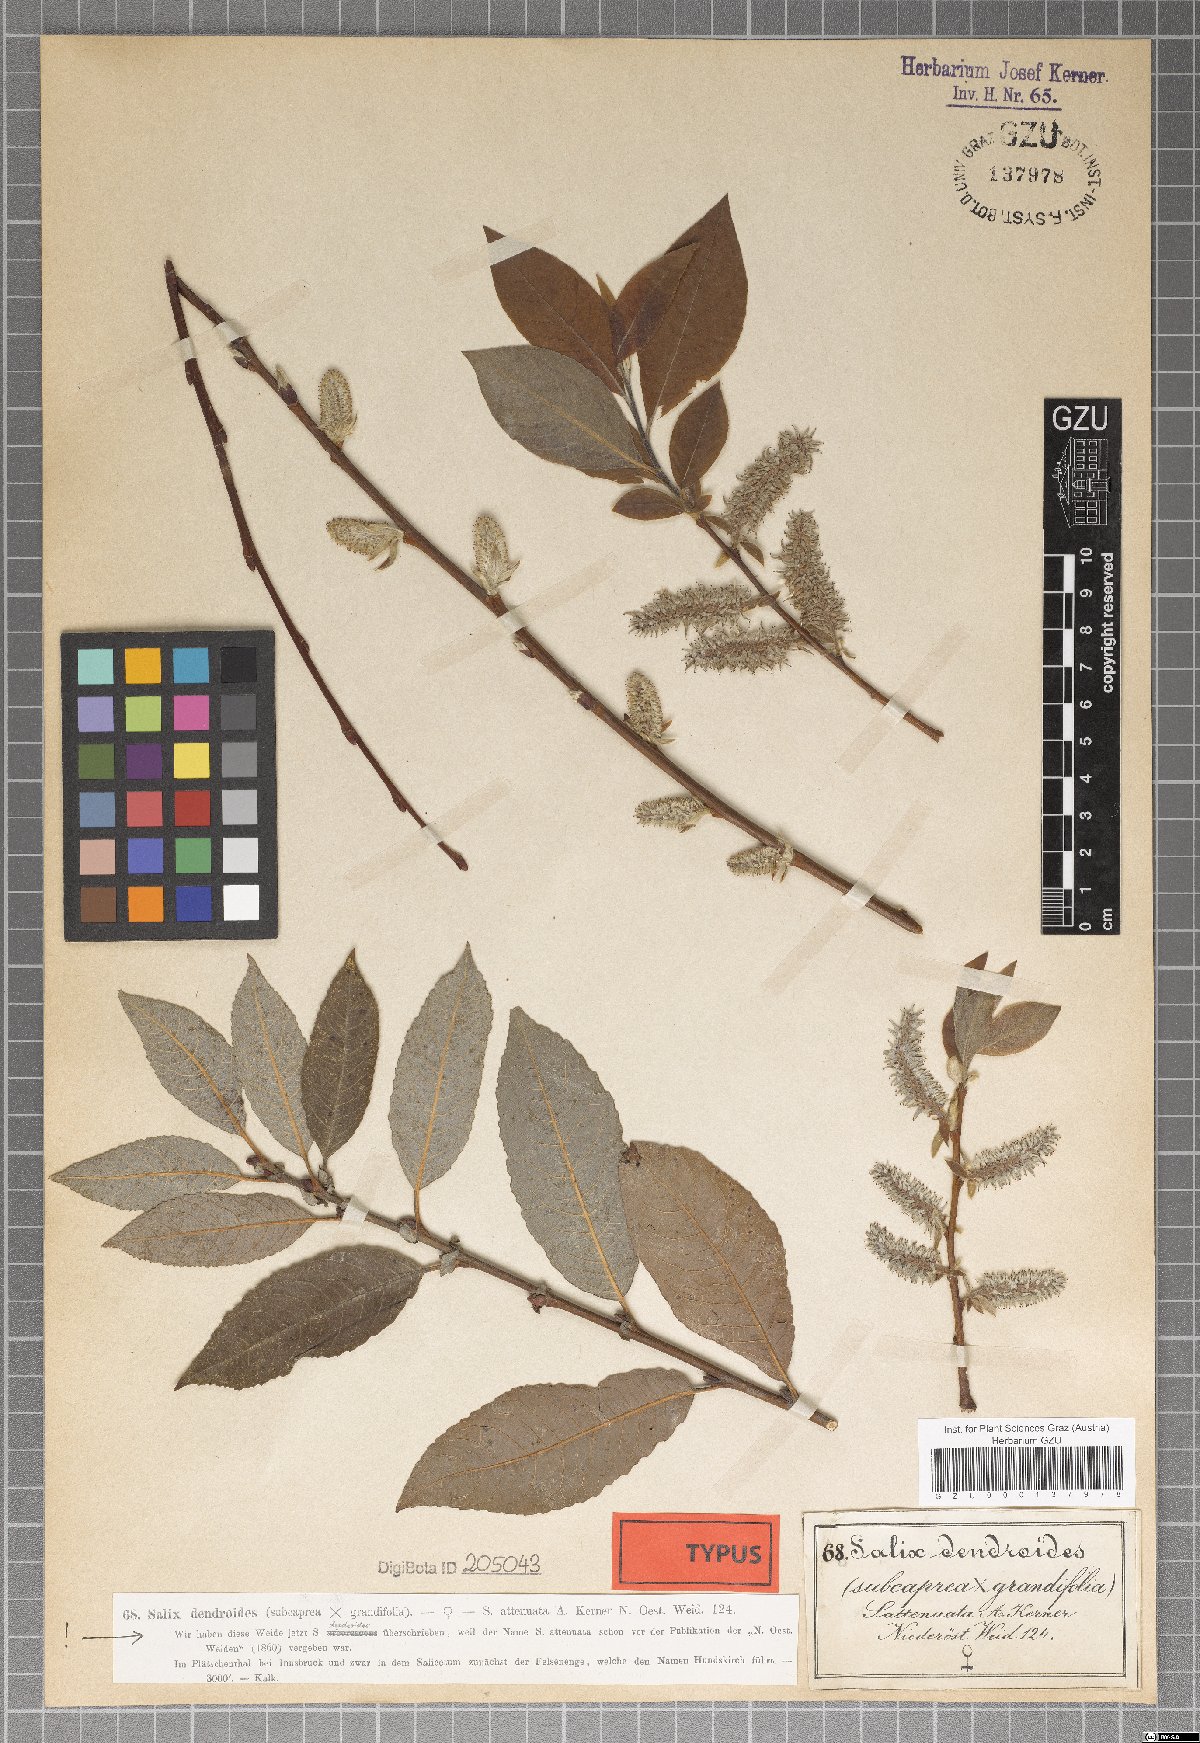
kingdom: Plantae
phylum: Tracheophyta
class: Magnoliopsida
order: Malpighiales
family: Salicaceae
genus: Salix
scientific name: Salix dendroides
